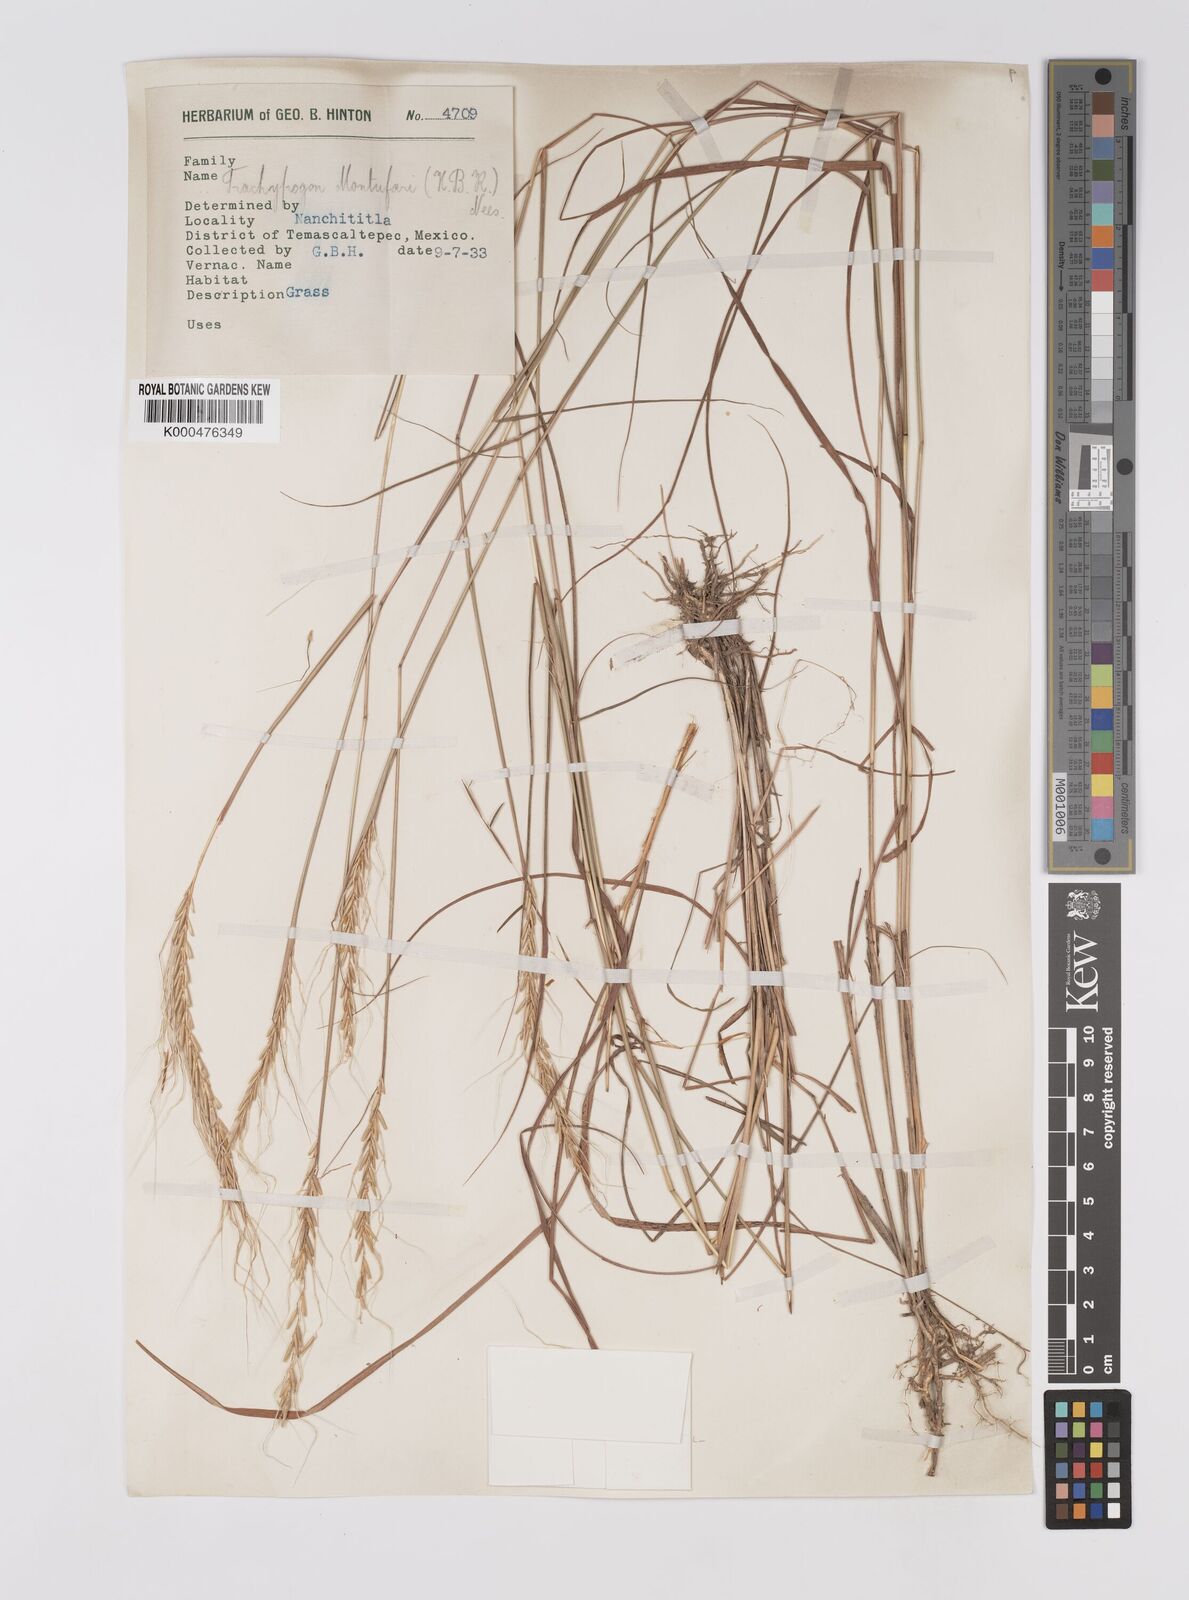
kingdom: Plantae
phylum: Tracheophyta
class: Liliopsida
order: Poales
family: Poaceae
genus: Trachypogon
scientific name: Trachypogon spicatus
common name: Crinkle-awn
